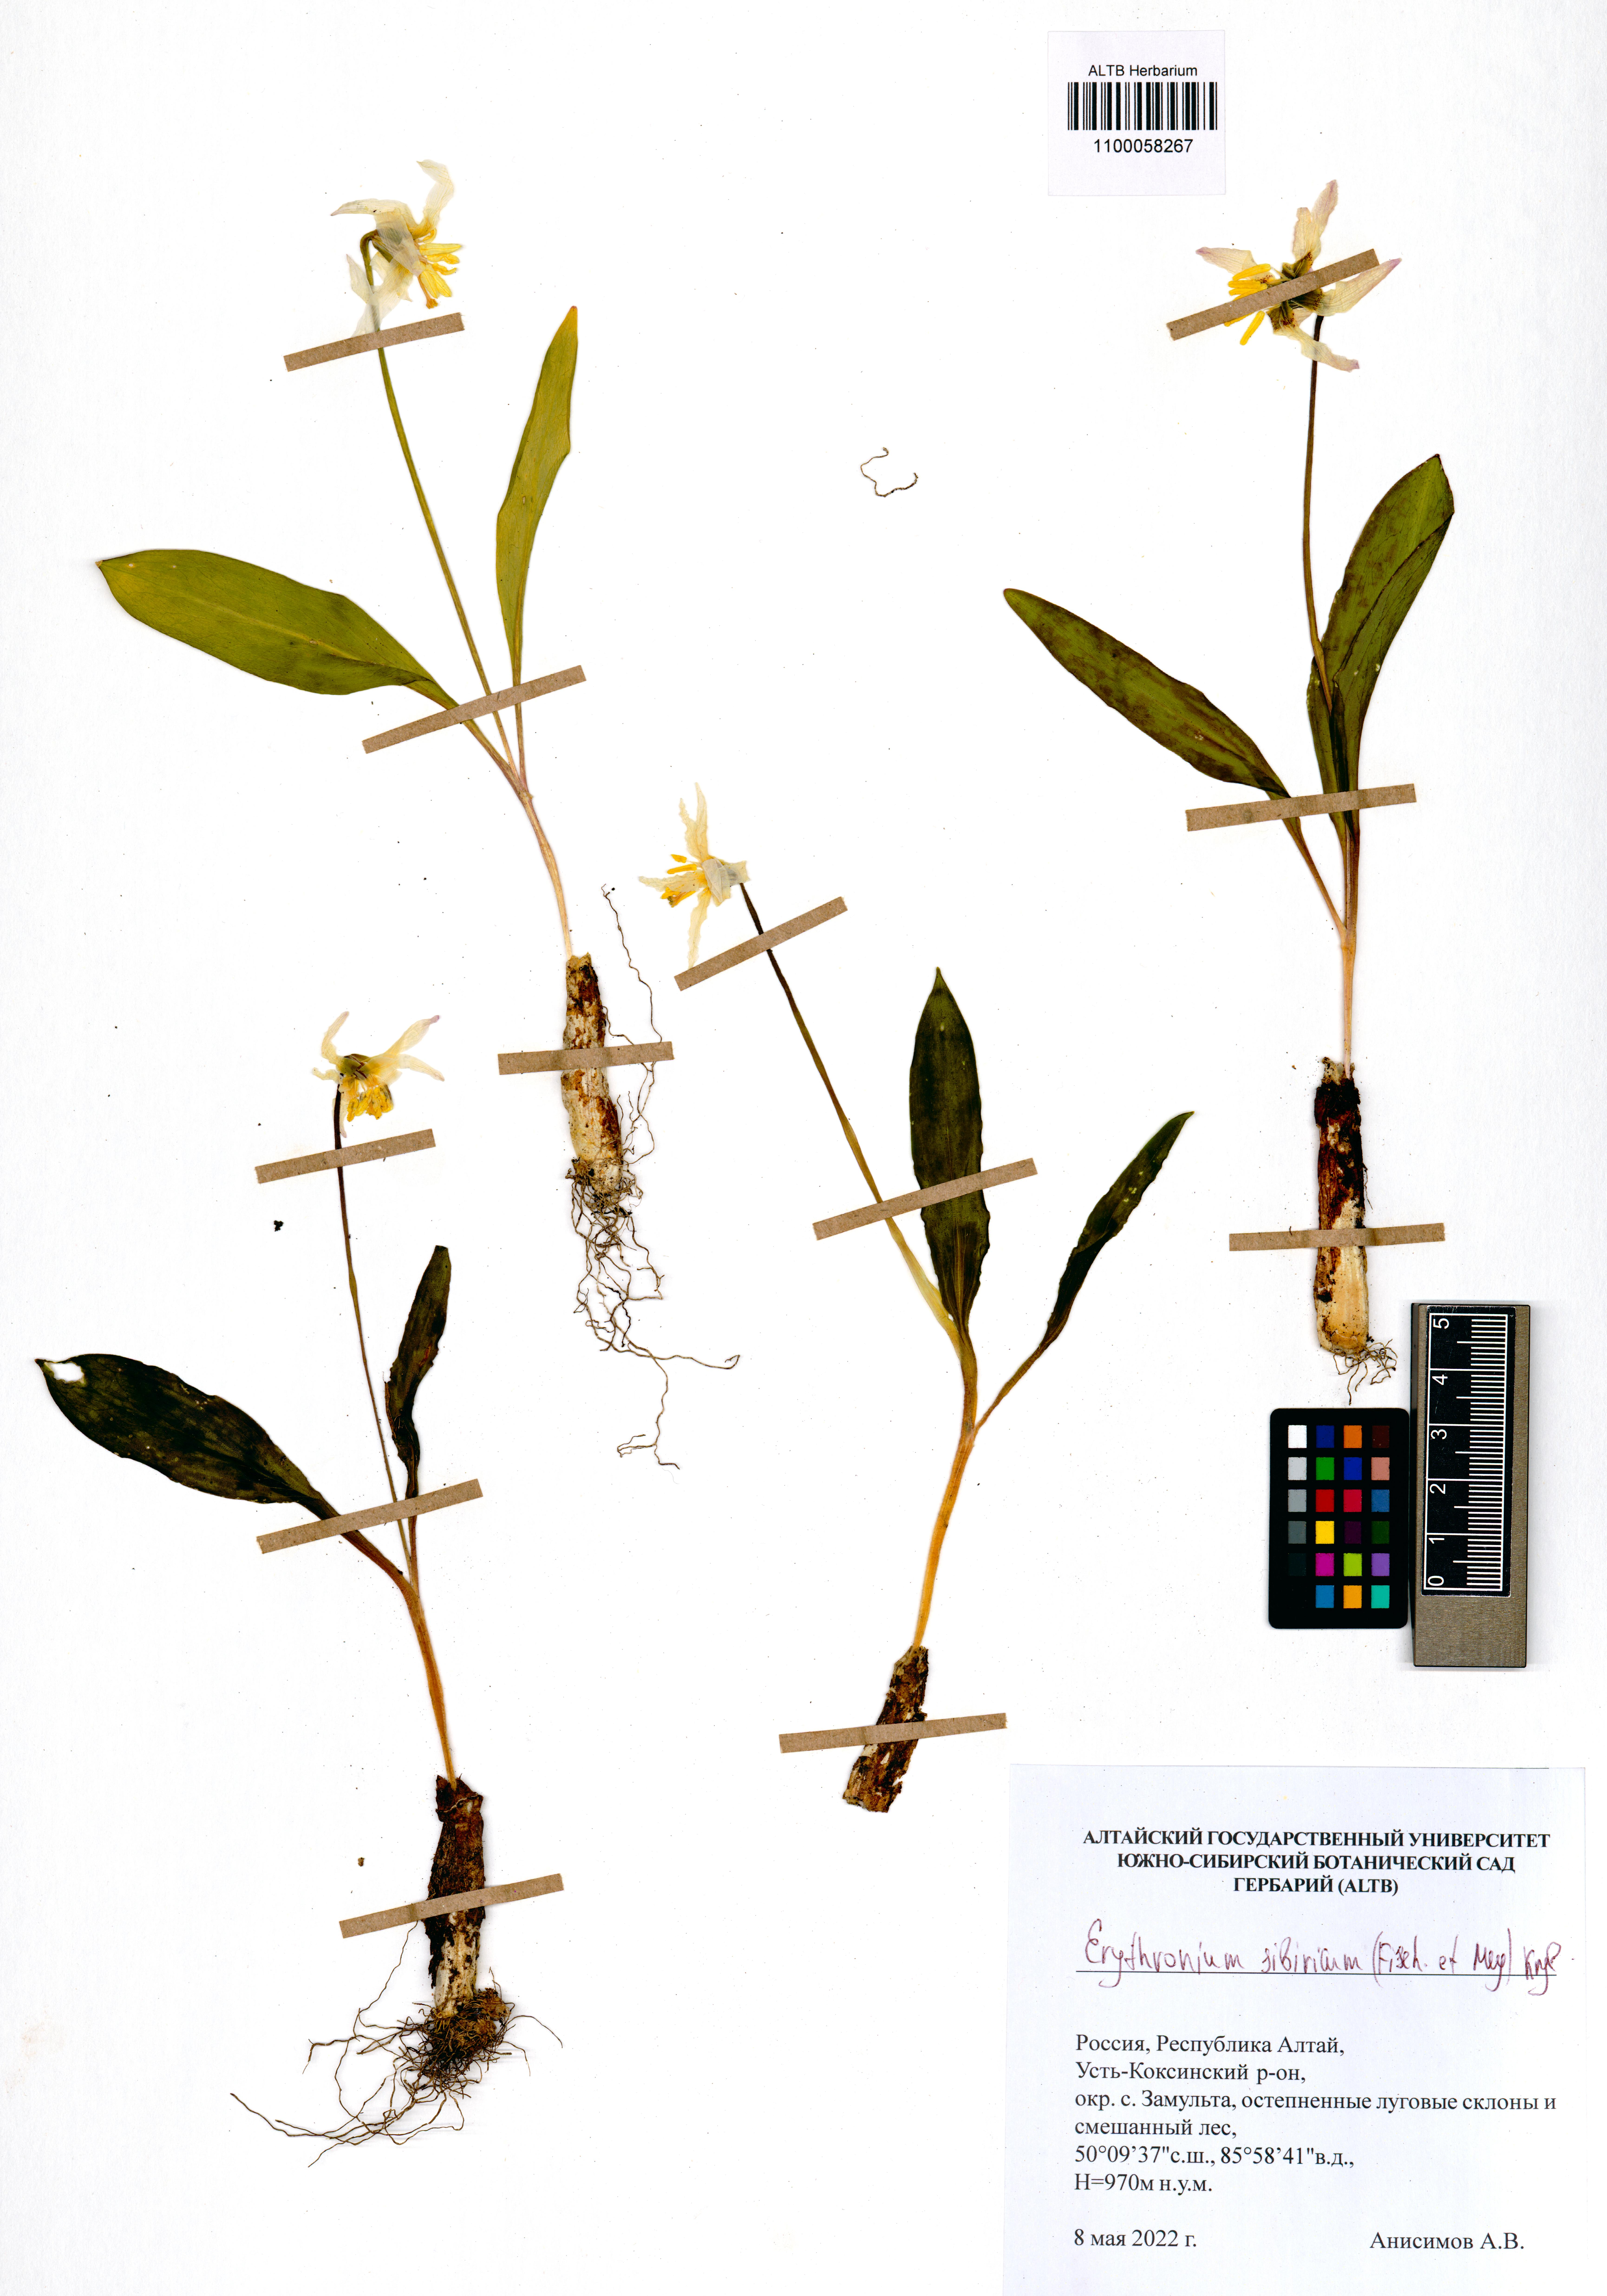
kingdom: Plantae
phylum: Tracheophyta
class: Liliopsida
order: Liliales
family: Liliaceae
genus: Erythronium
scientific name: Erythronium sibiricum
